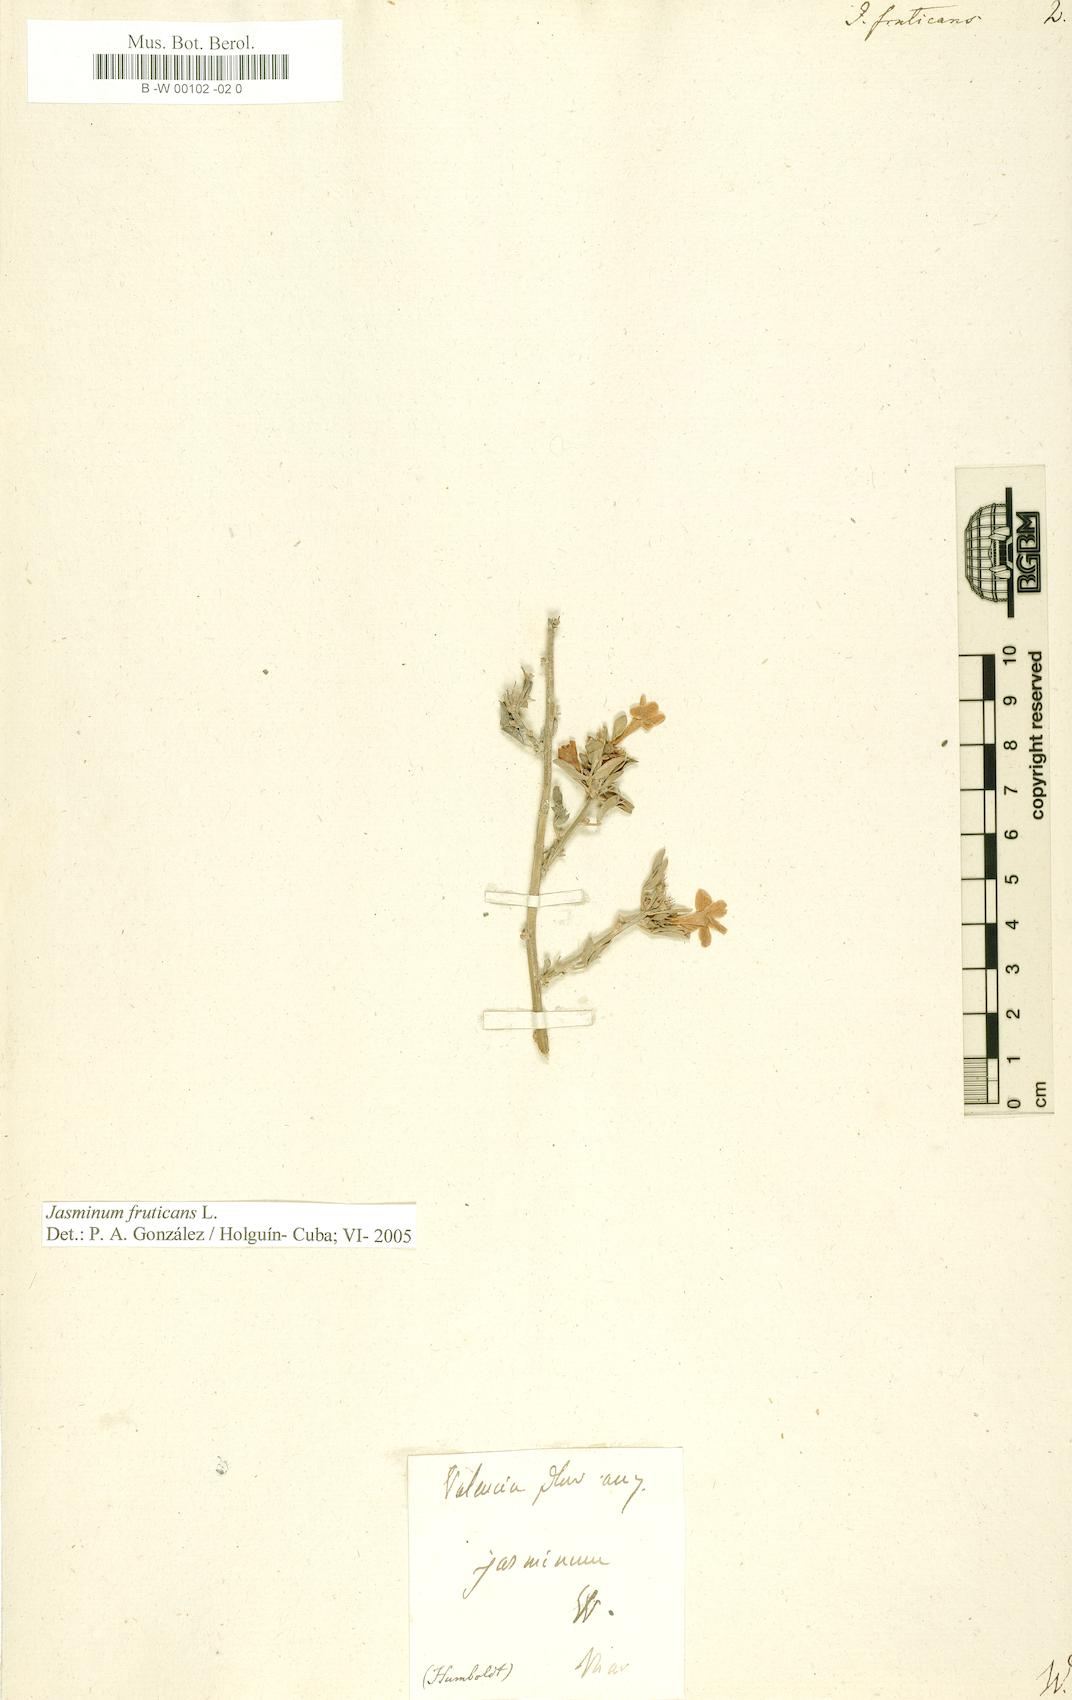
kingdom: Plantae
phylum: Tracheophyta
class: Magnoliopsida
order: Lamiales
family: Oleaceae
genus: Chrysojasminum
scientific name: Chrysojasminum fruticans
